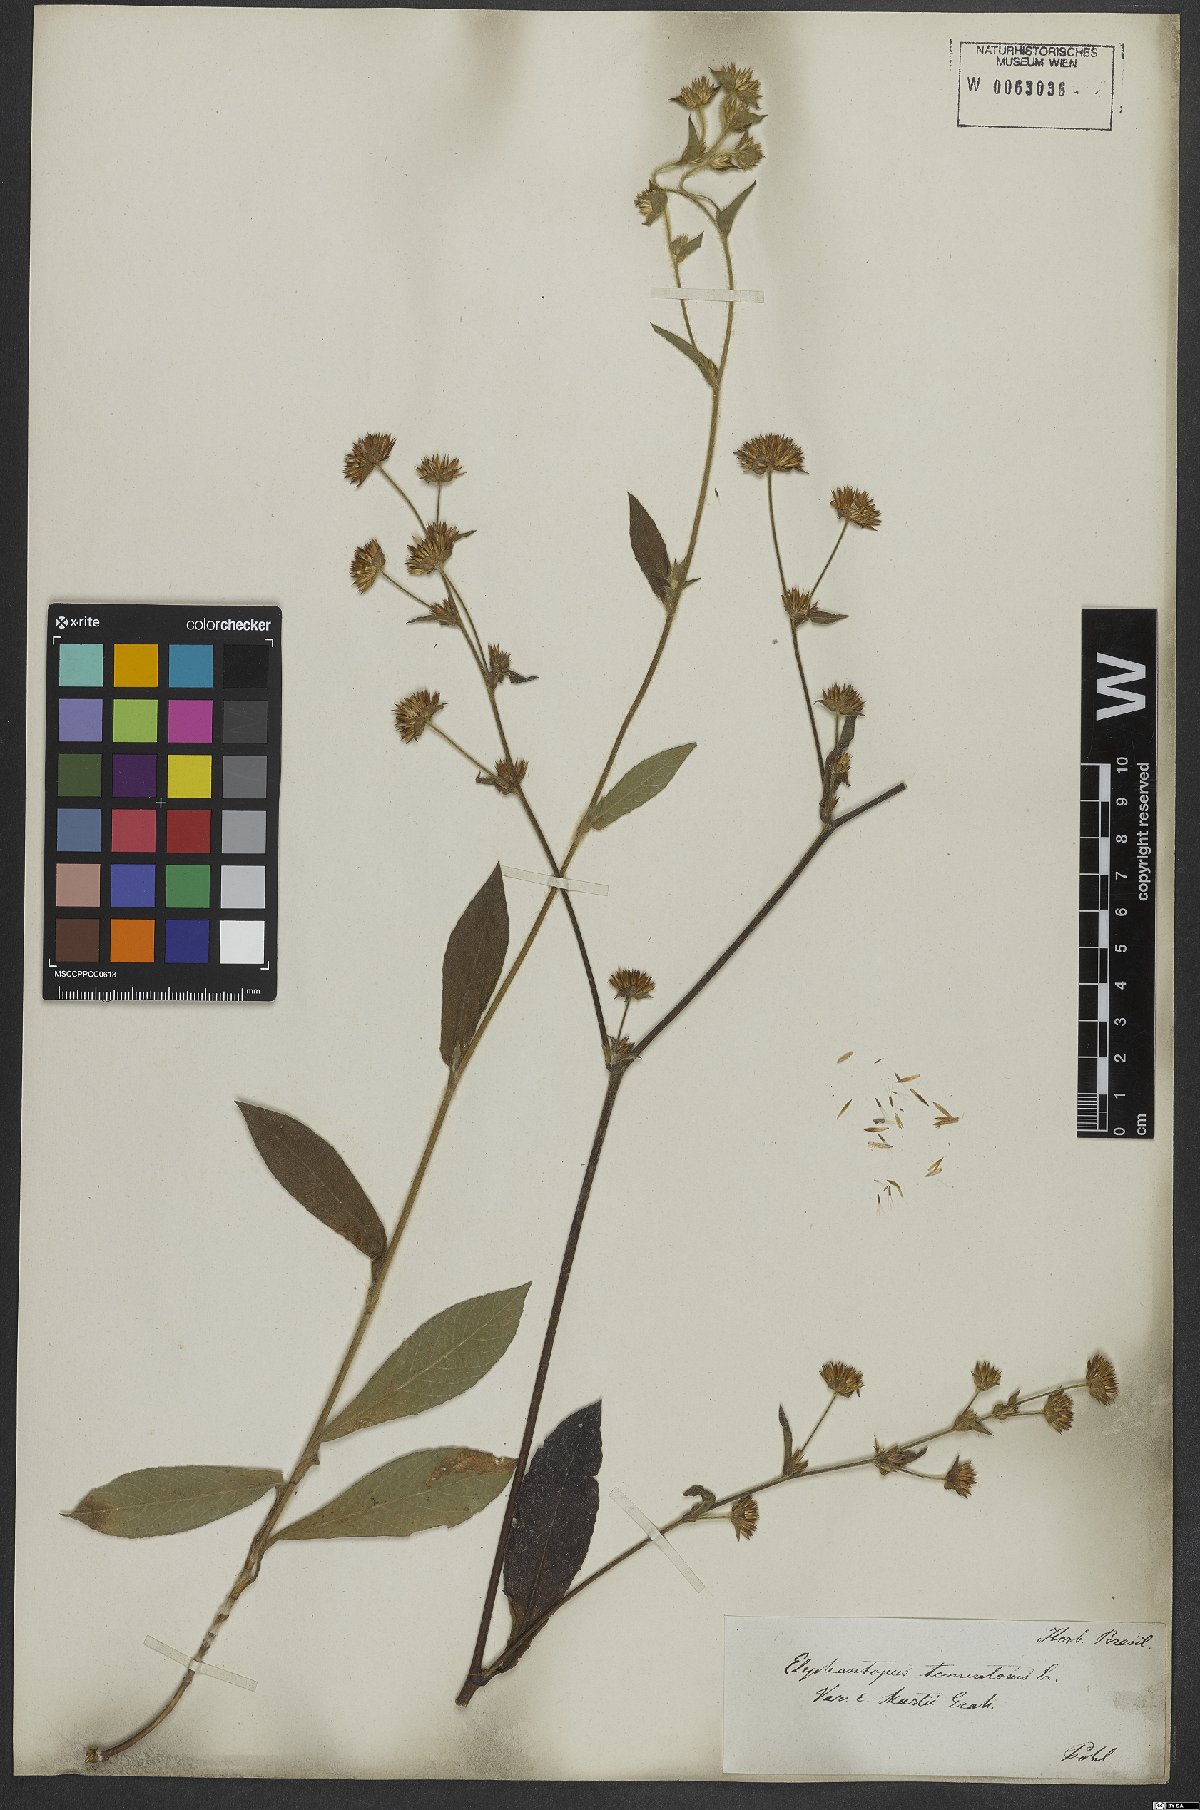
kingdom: Plantae
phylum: Tracheophyta
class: Magnoliopsida
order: Asterales
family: Asteraceae
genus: Elephantopus
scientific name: Elephantopus tomentosus
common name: Tobacco-weed
